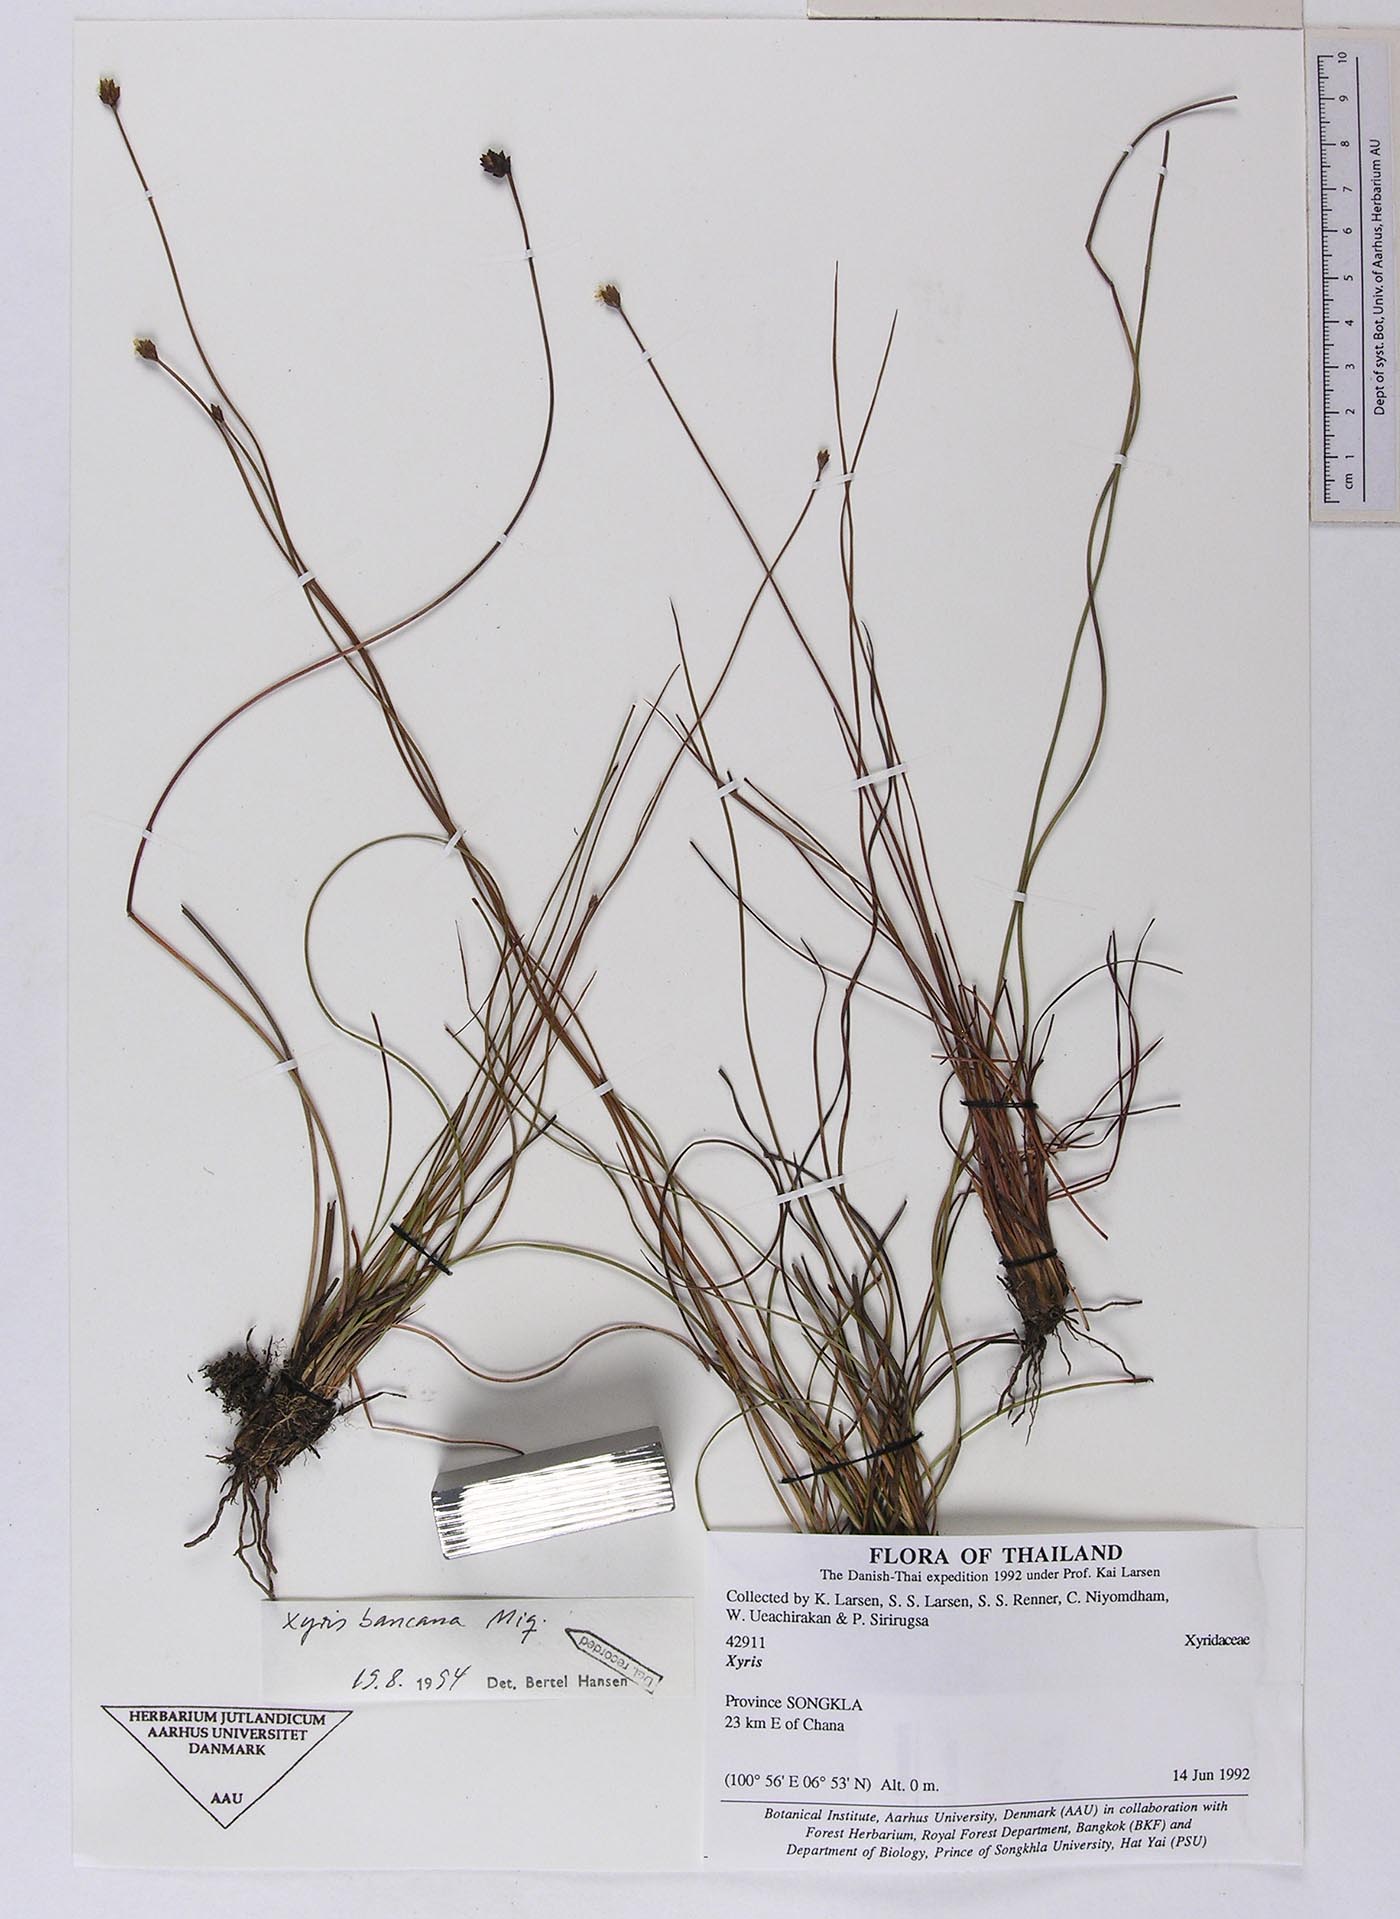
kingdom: Plantae
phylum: Tracheophyta
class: Liliopsida
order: Poales
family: Xyridaceae
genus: Xyris
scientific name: Xyris borneensis
